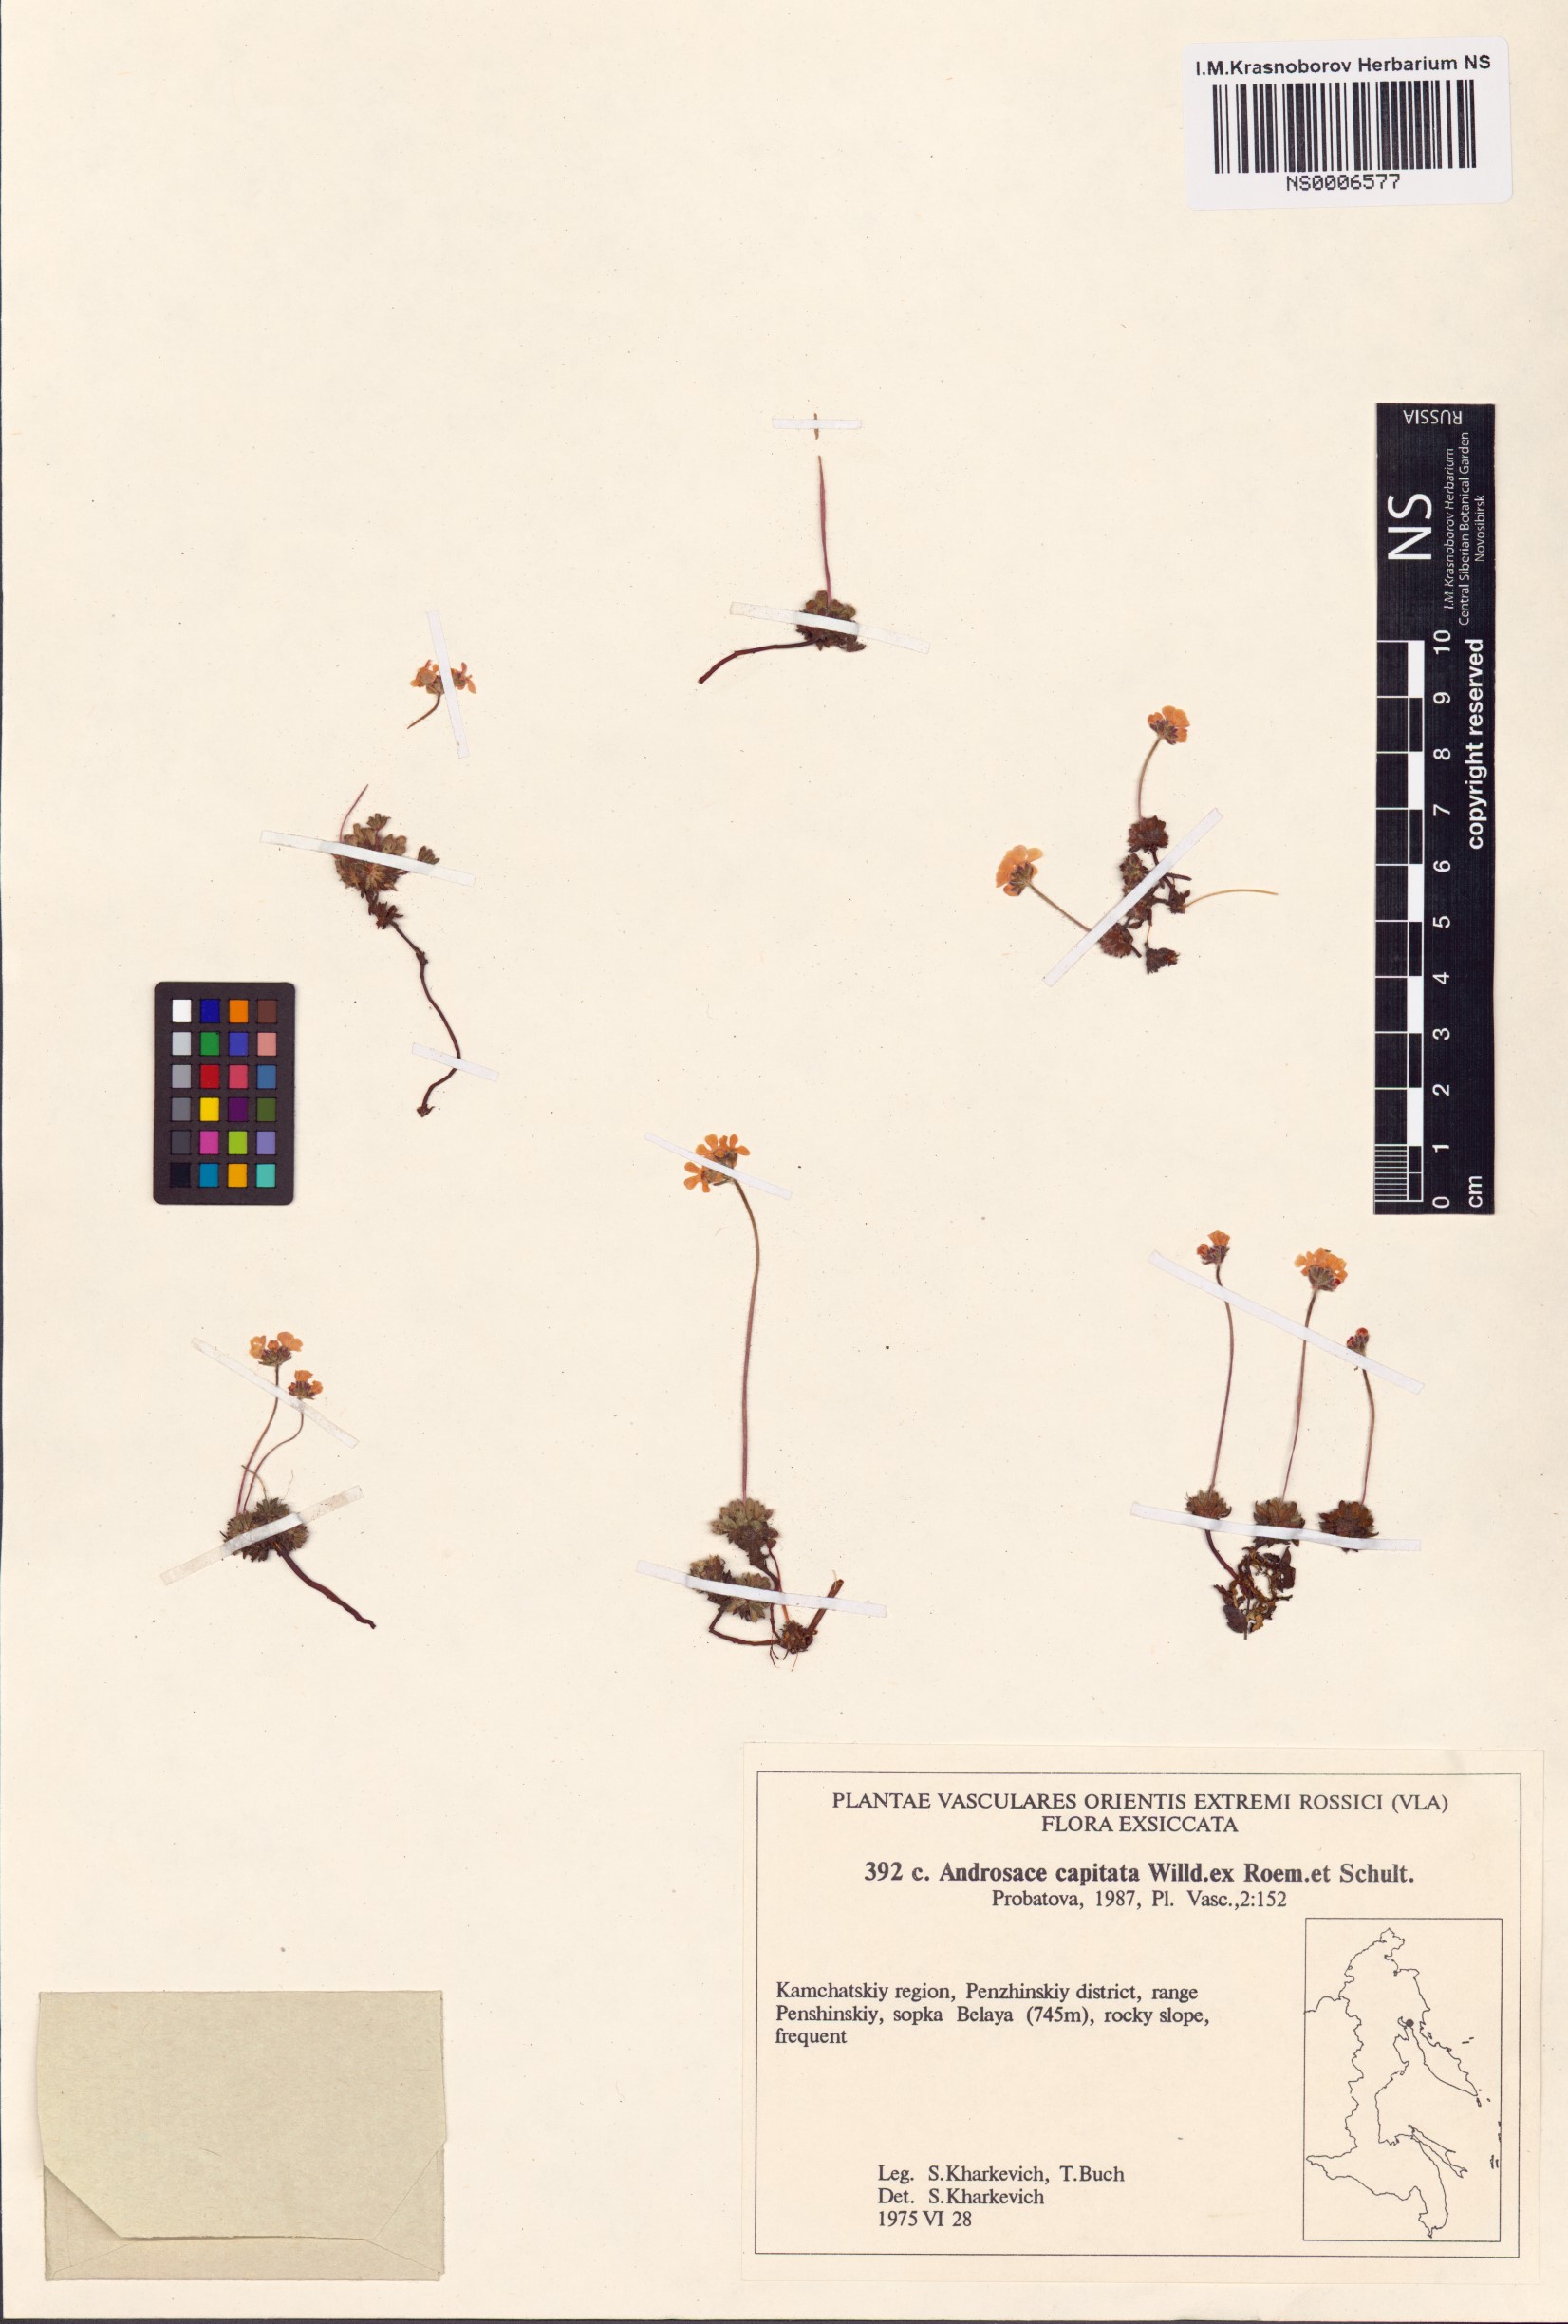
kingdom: Plantae
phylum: Tracheophyta
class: Magnoliopsida
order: Ericales
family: Primulaceae
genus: Androsace
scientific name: Androsace chamaejasme
